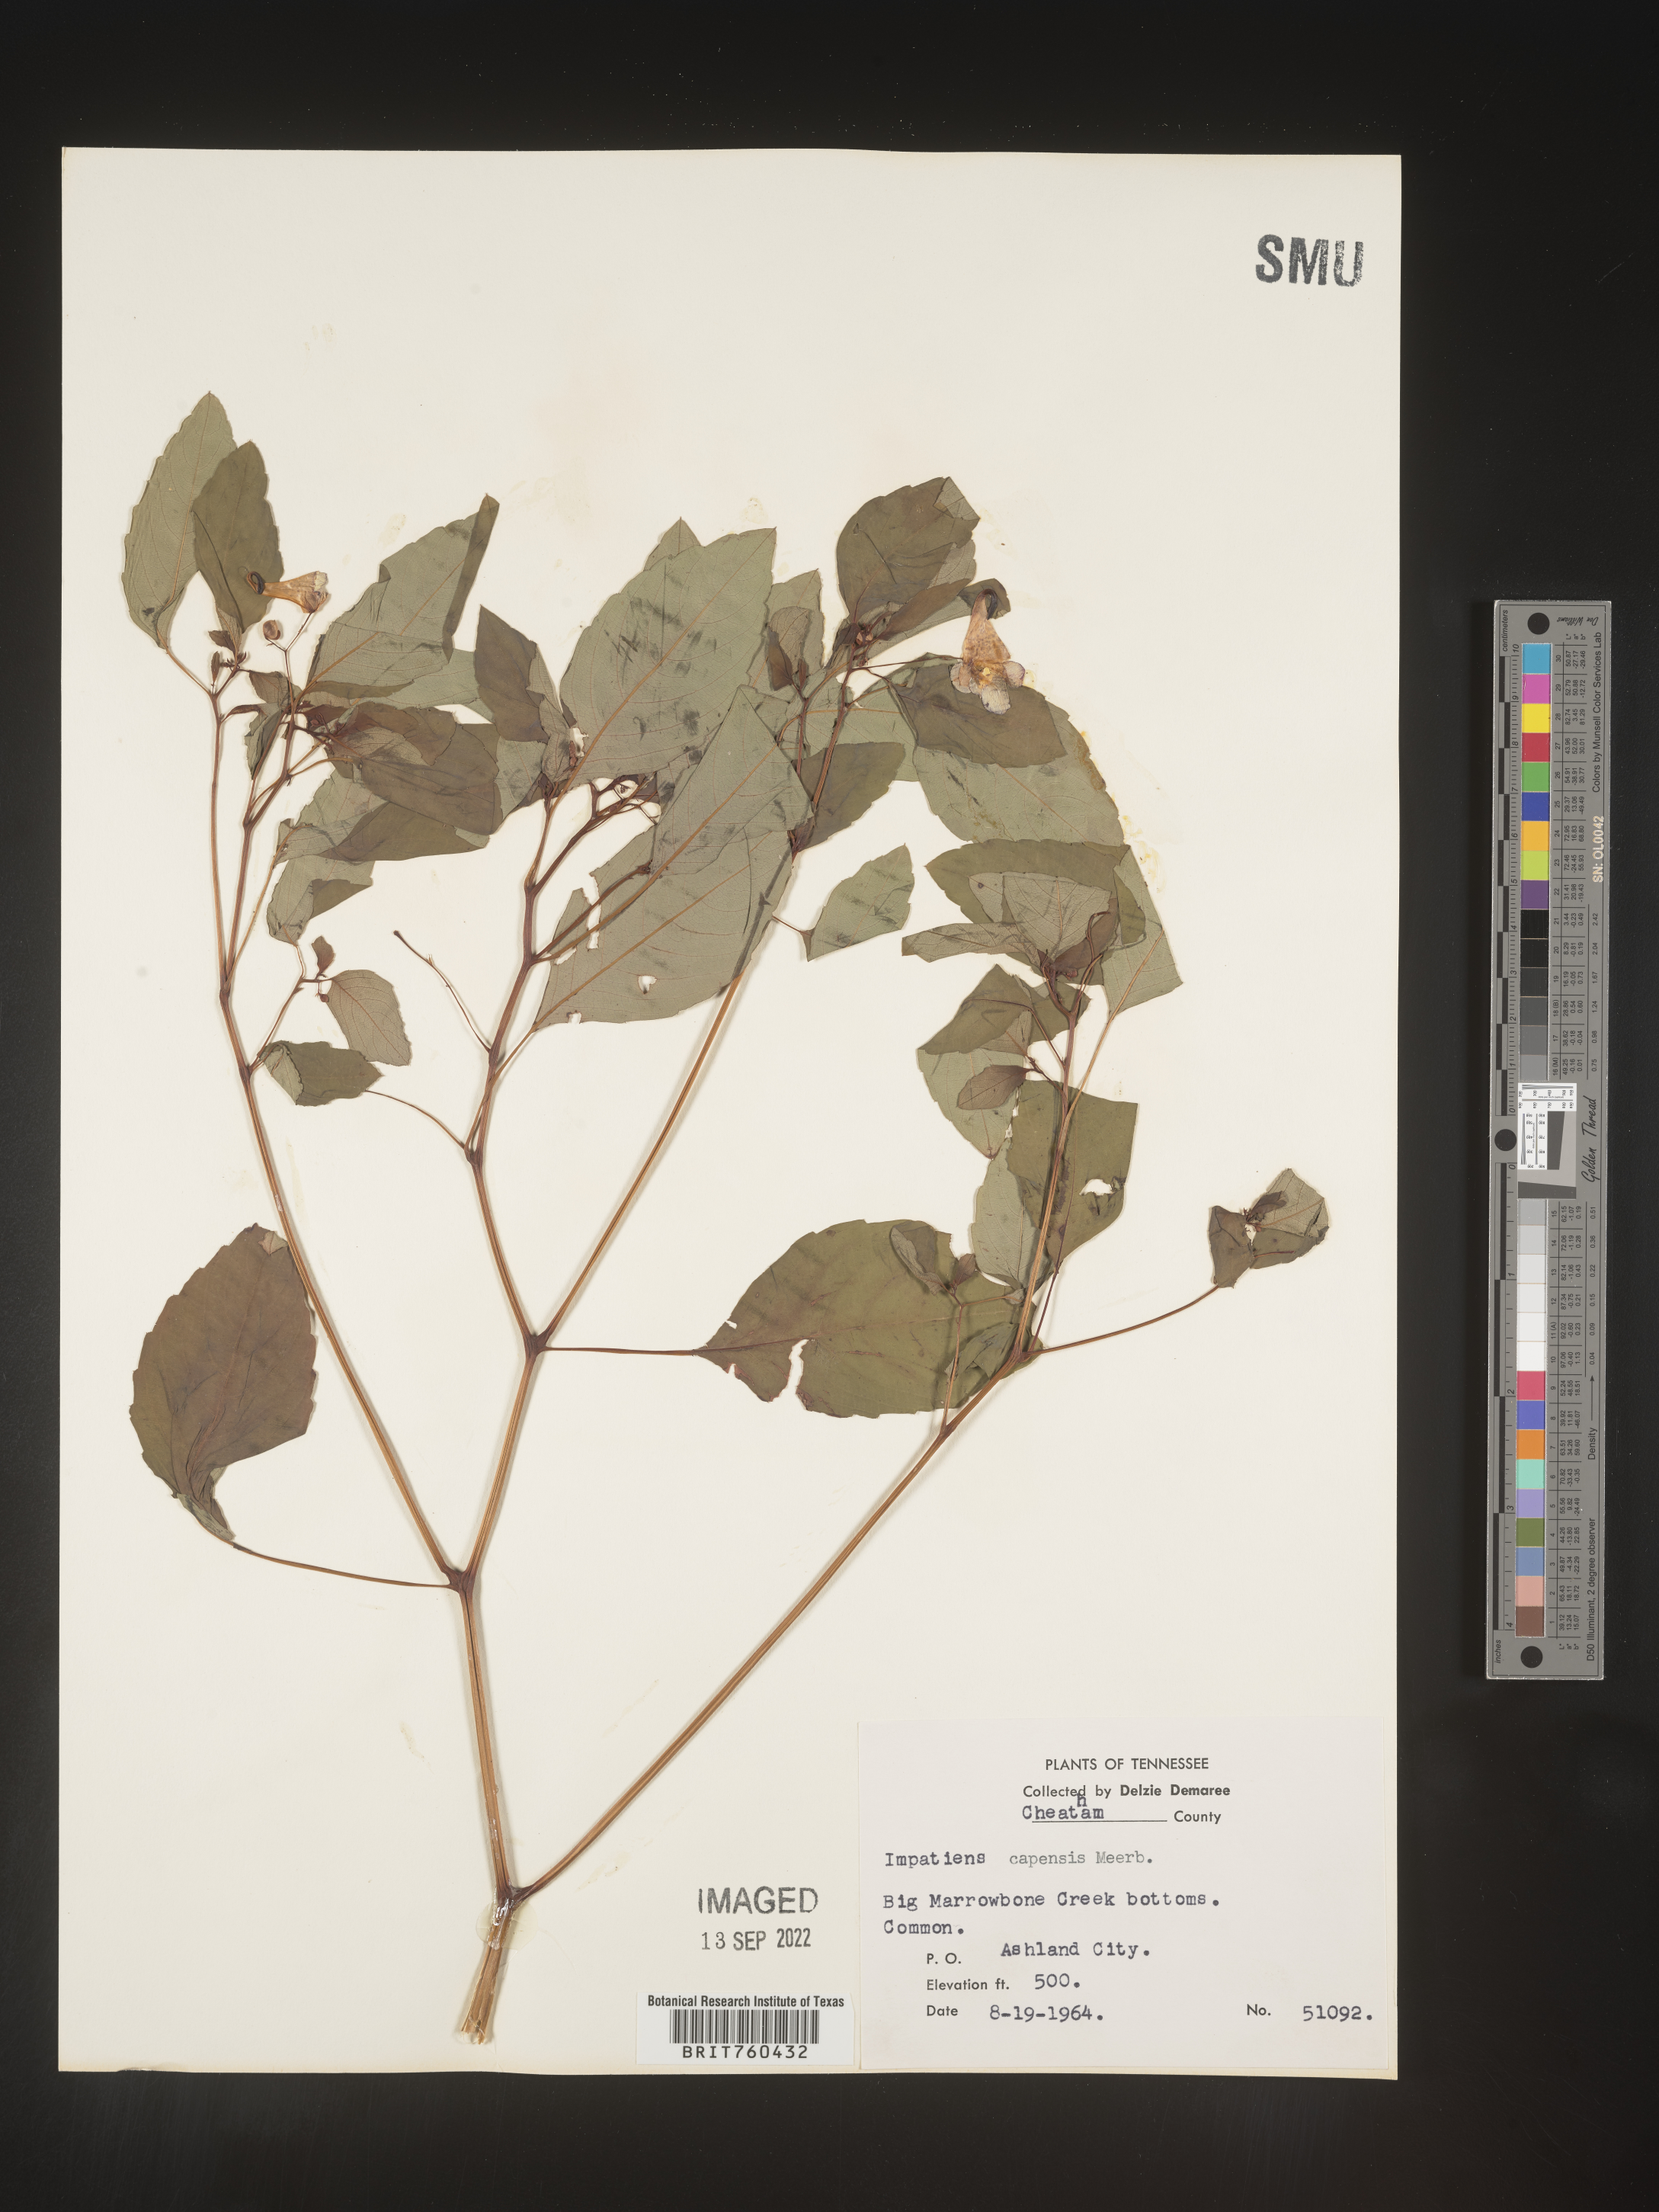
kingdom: Plantae
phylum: Tracheophyta
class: Magnoliopsida
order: Ericales
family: Balsaminaceae
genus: Impatiens
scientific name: Impatiens capensis
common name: Orange balsam
